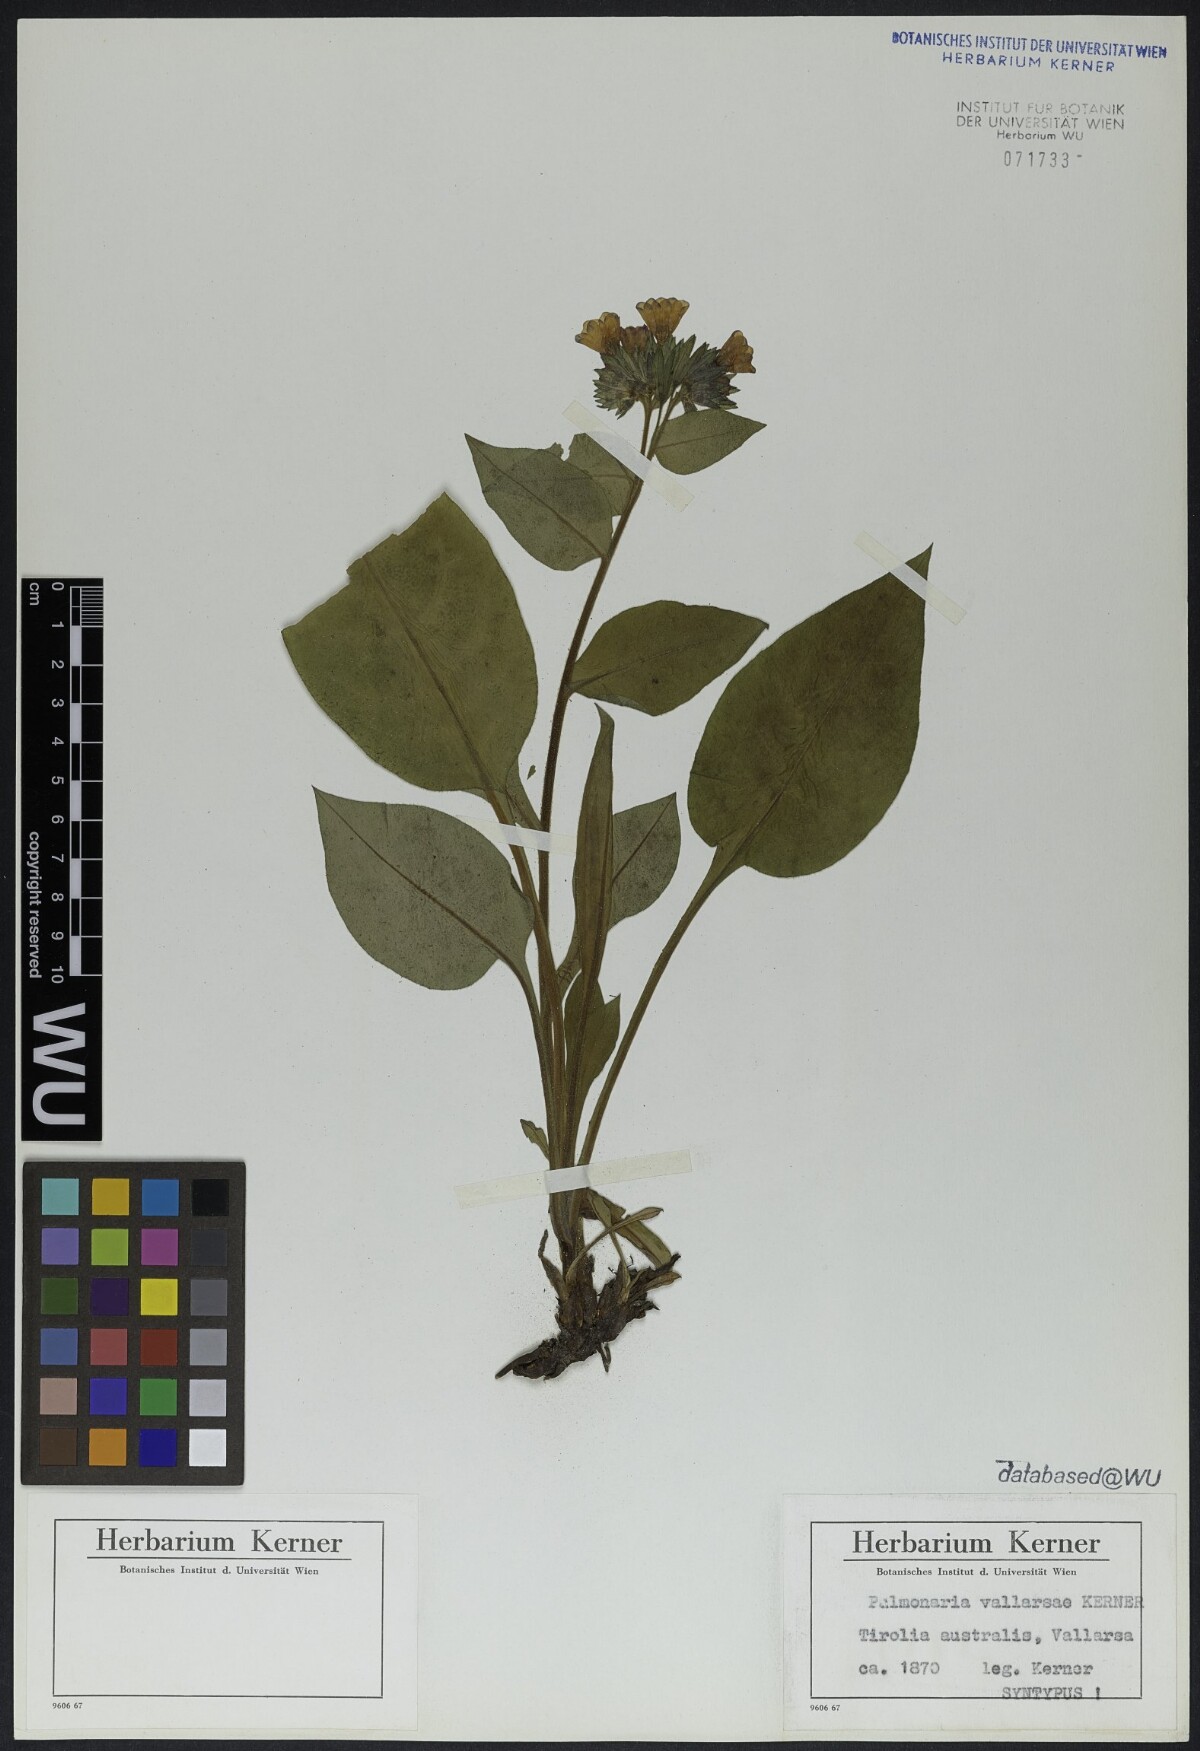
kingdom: Plantae
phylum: Tracheophyta
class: Magnoliopsida
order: Boraginales
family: Boraginaceae
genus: Pulmonaria
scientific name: Pulmonaria hirta
